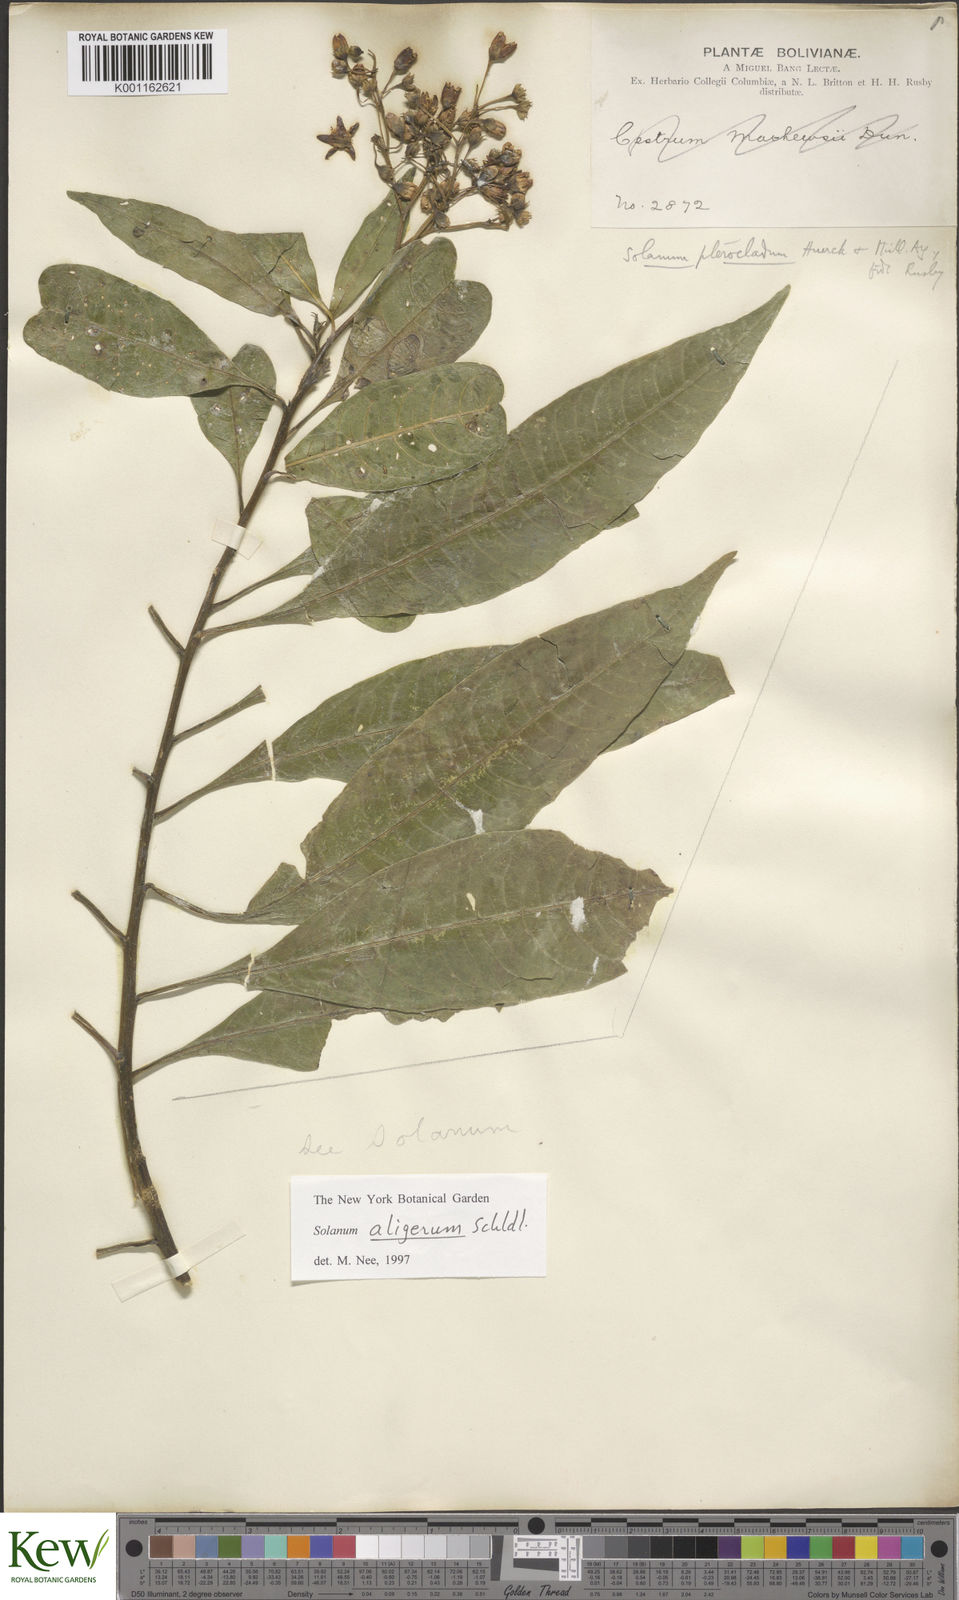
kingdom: Plantae
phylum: Tracheophyta
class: Magnoliopsida
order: Solanales
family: Solanaceae
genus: Solanum
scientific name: Solanum aligerum
